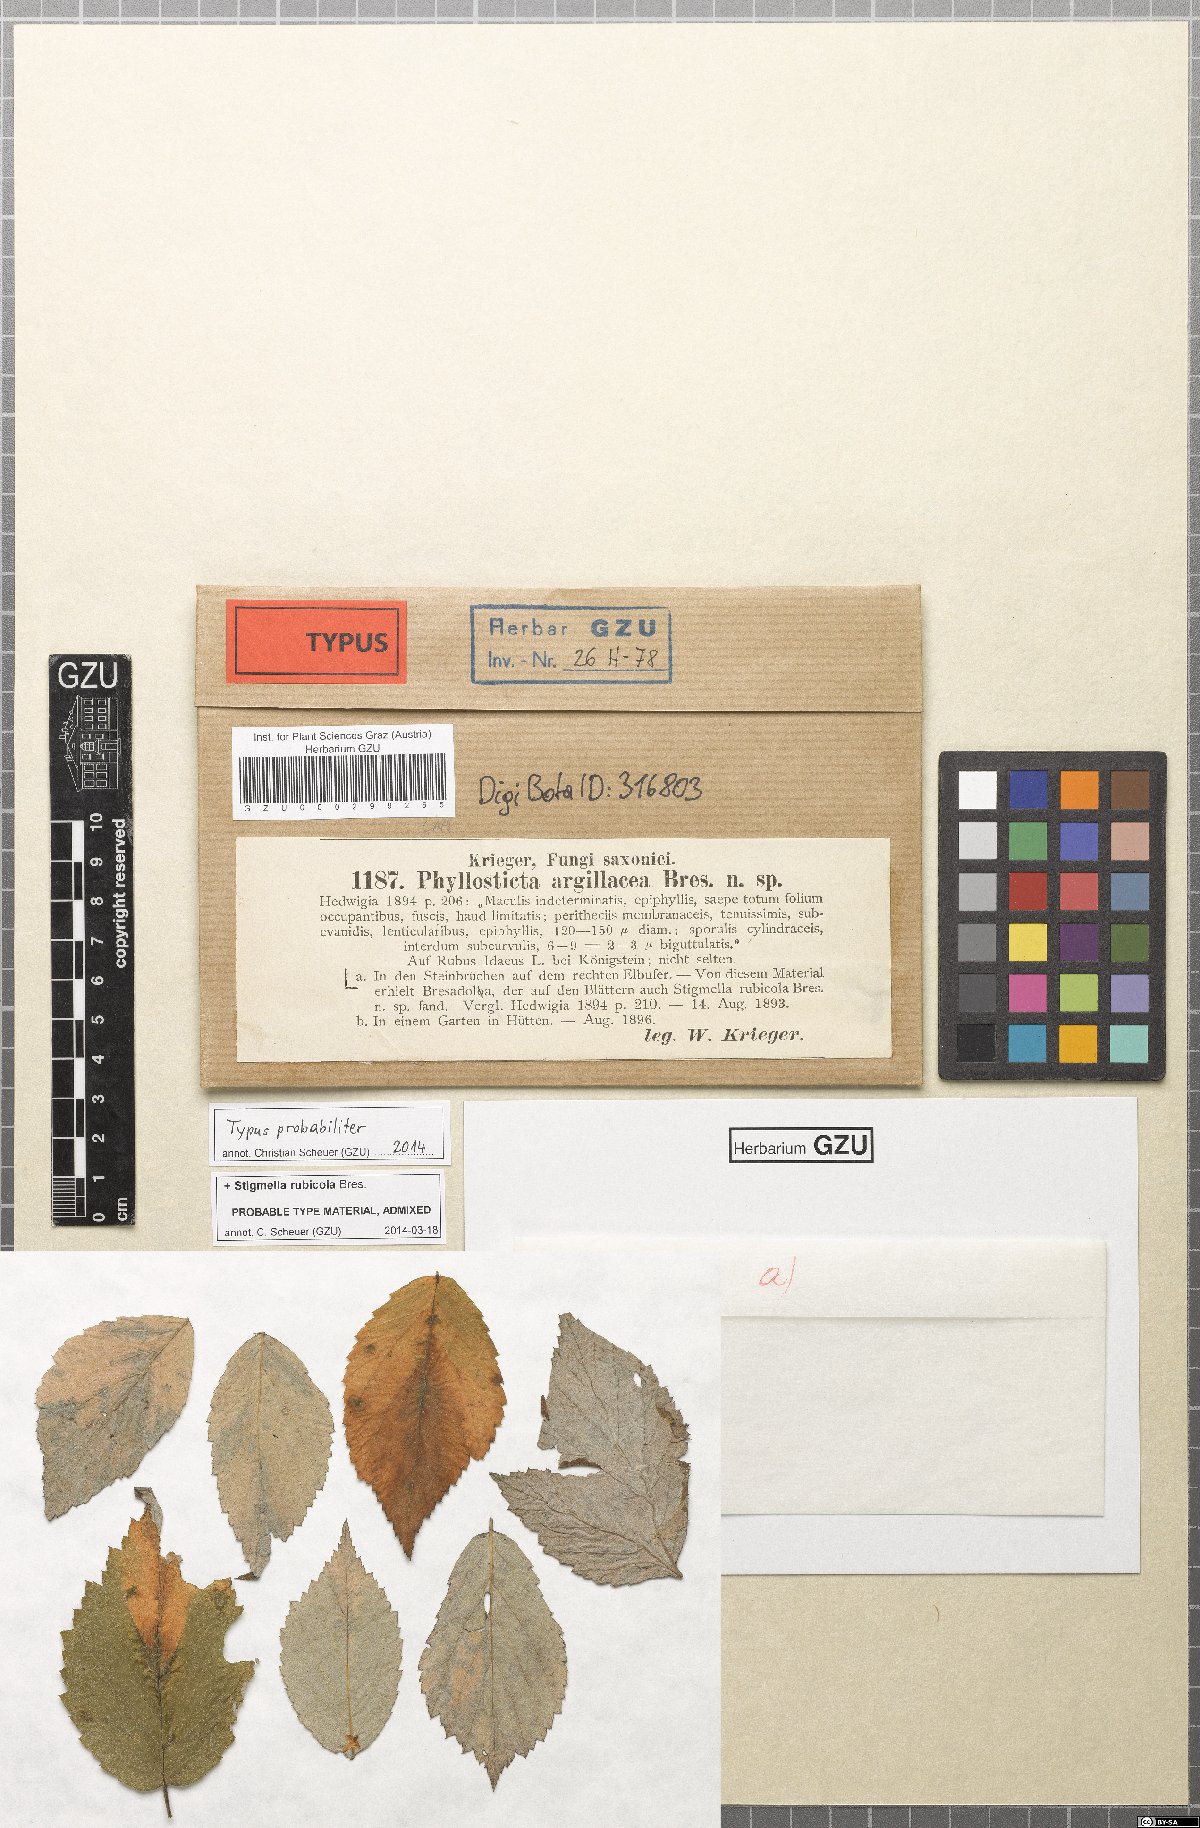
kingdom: Fungi
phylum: Ascomycota
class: Dothideomycetes
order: Pleosporales
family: Didymellaceae
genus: Xenodidymella
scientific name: Xenodidymella applanata
